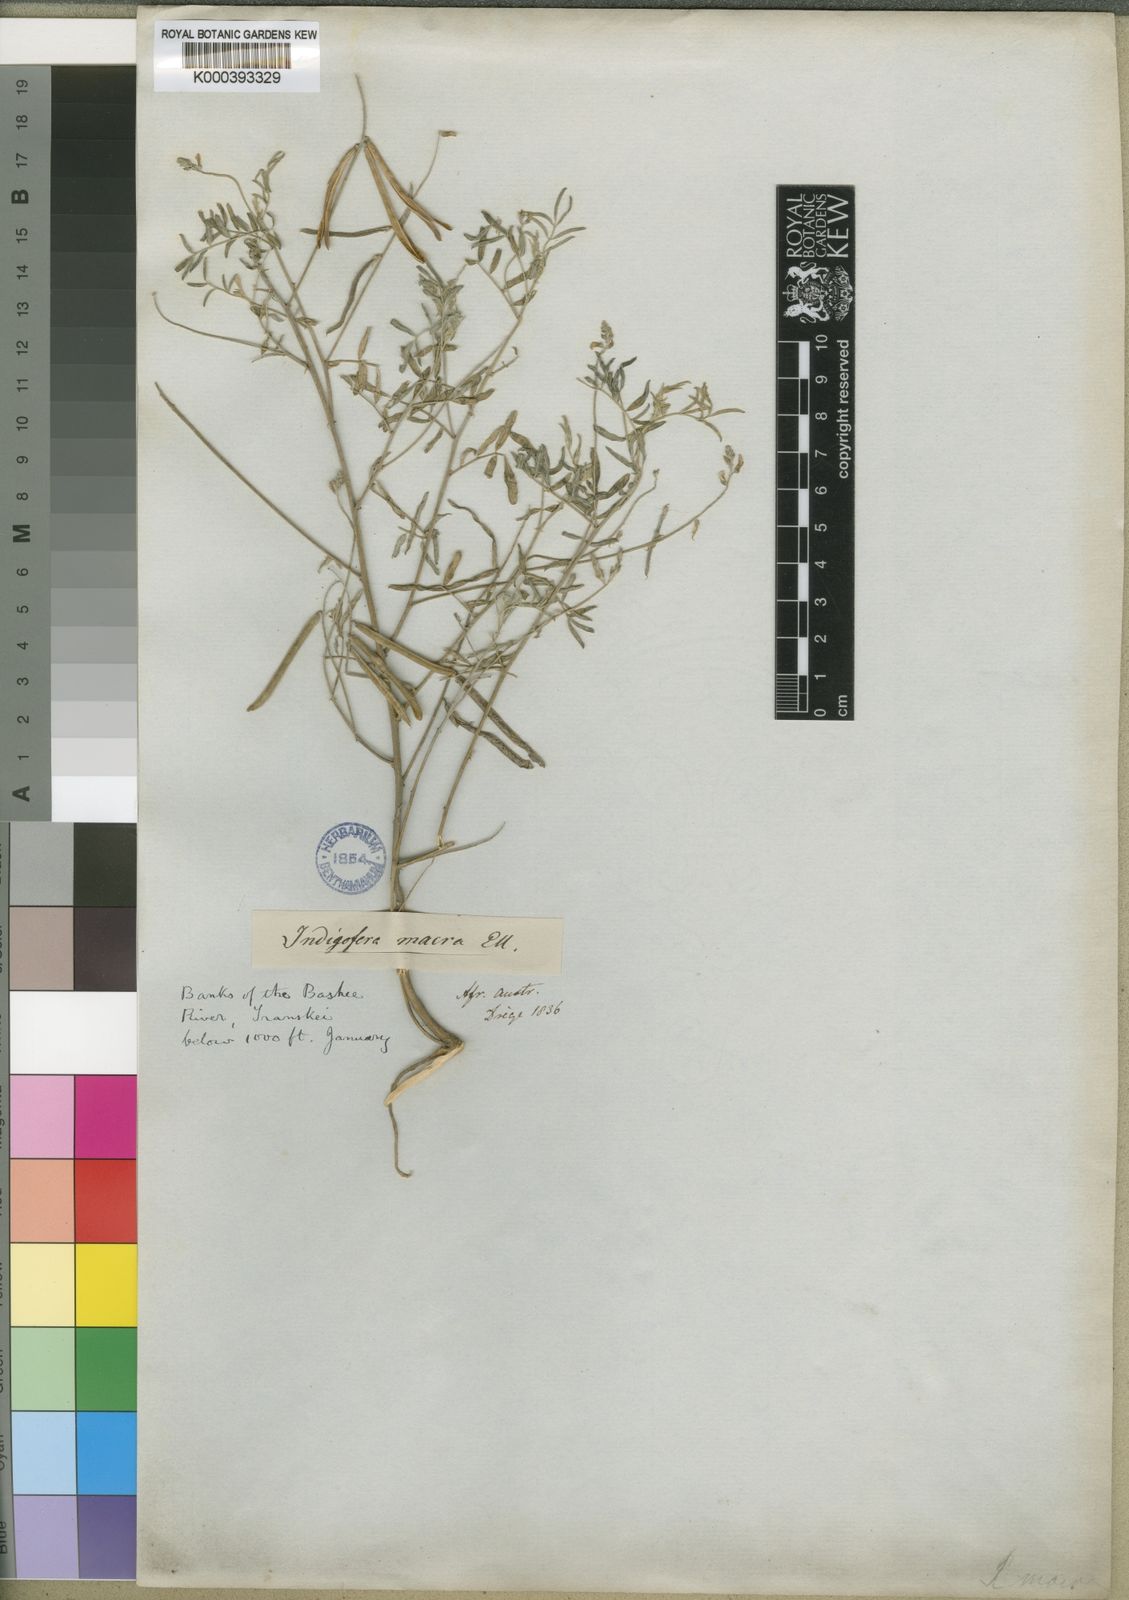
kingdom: Plantae
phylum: Tracheophyta
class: Magnoliopsida
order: Fabales
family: Fabaceae
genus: Indigastrum
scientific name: Indigastrum costatum
